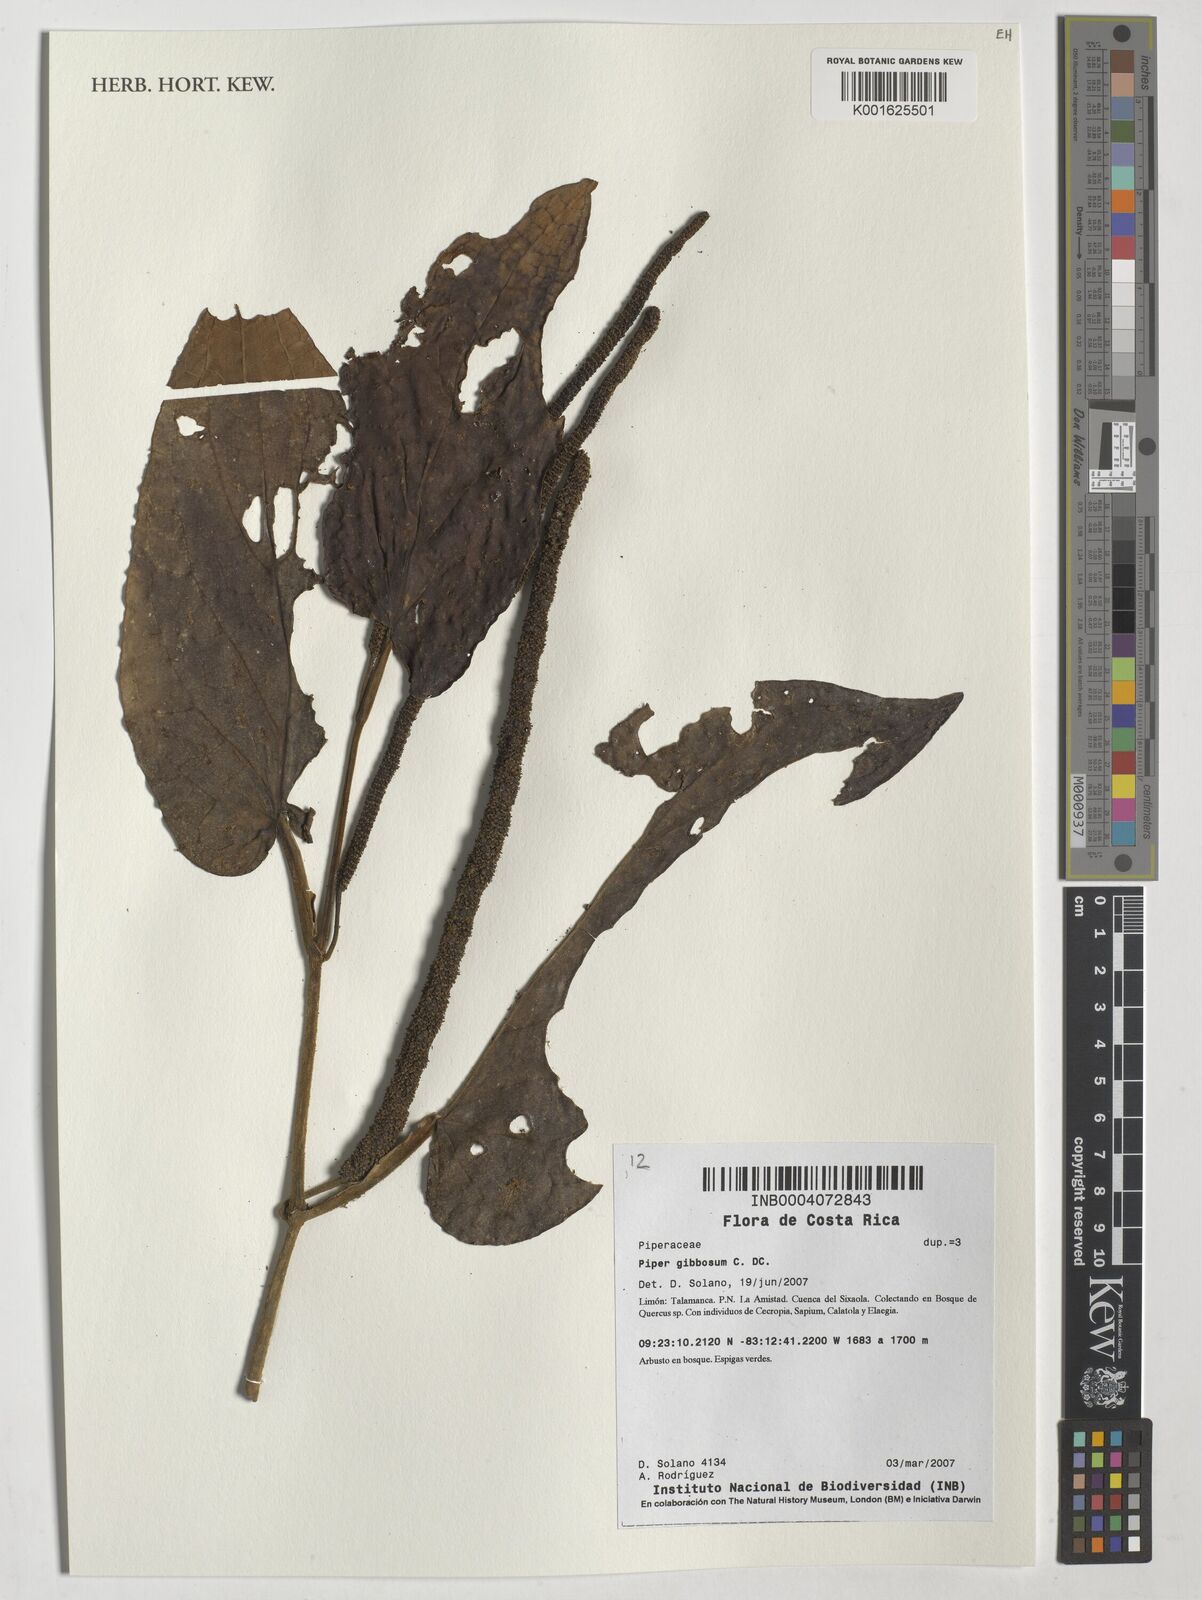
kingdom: Plantae
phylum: Tracheophyta
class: Magnoliopsida
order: Piperales
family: Piperaceae
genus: Piper
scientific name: Piper gibbosum
